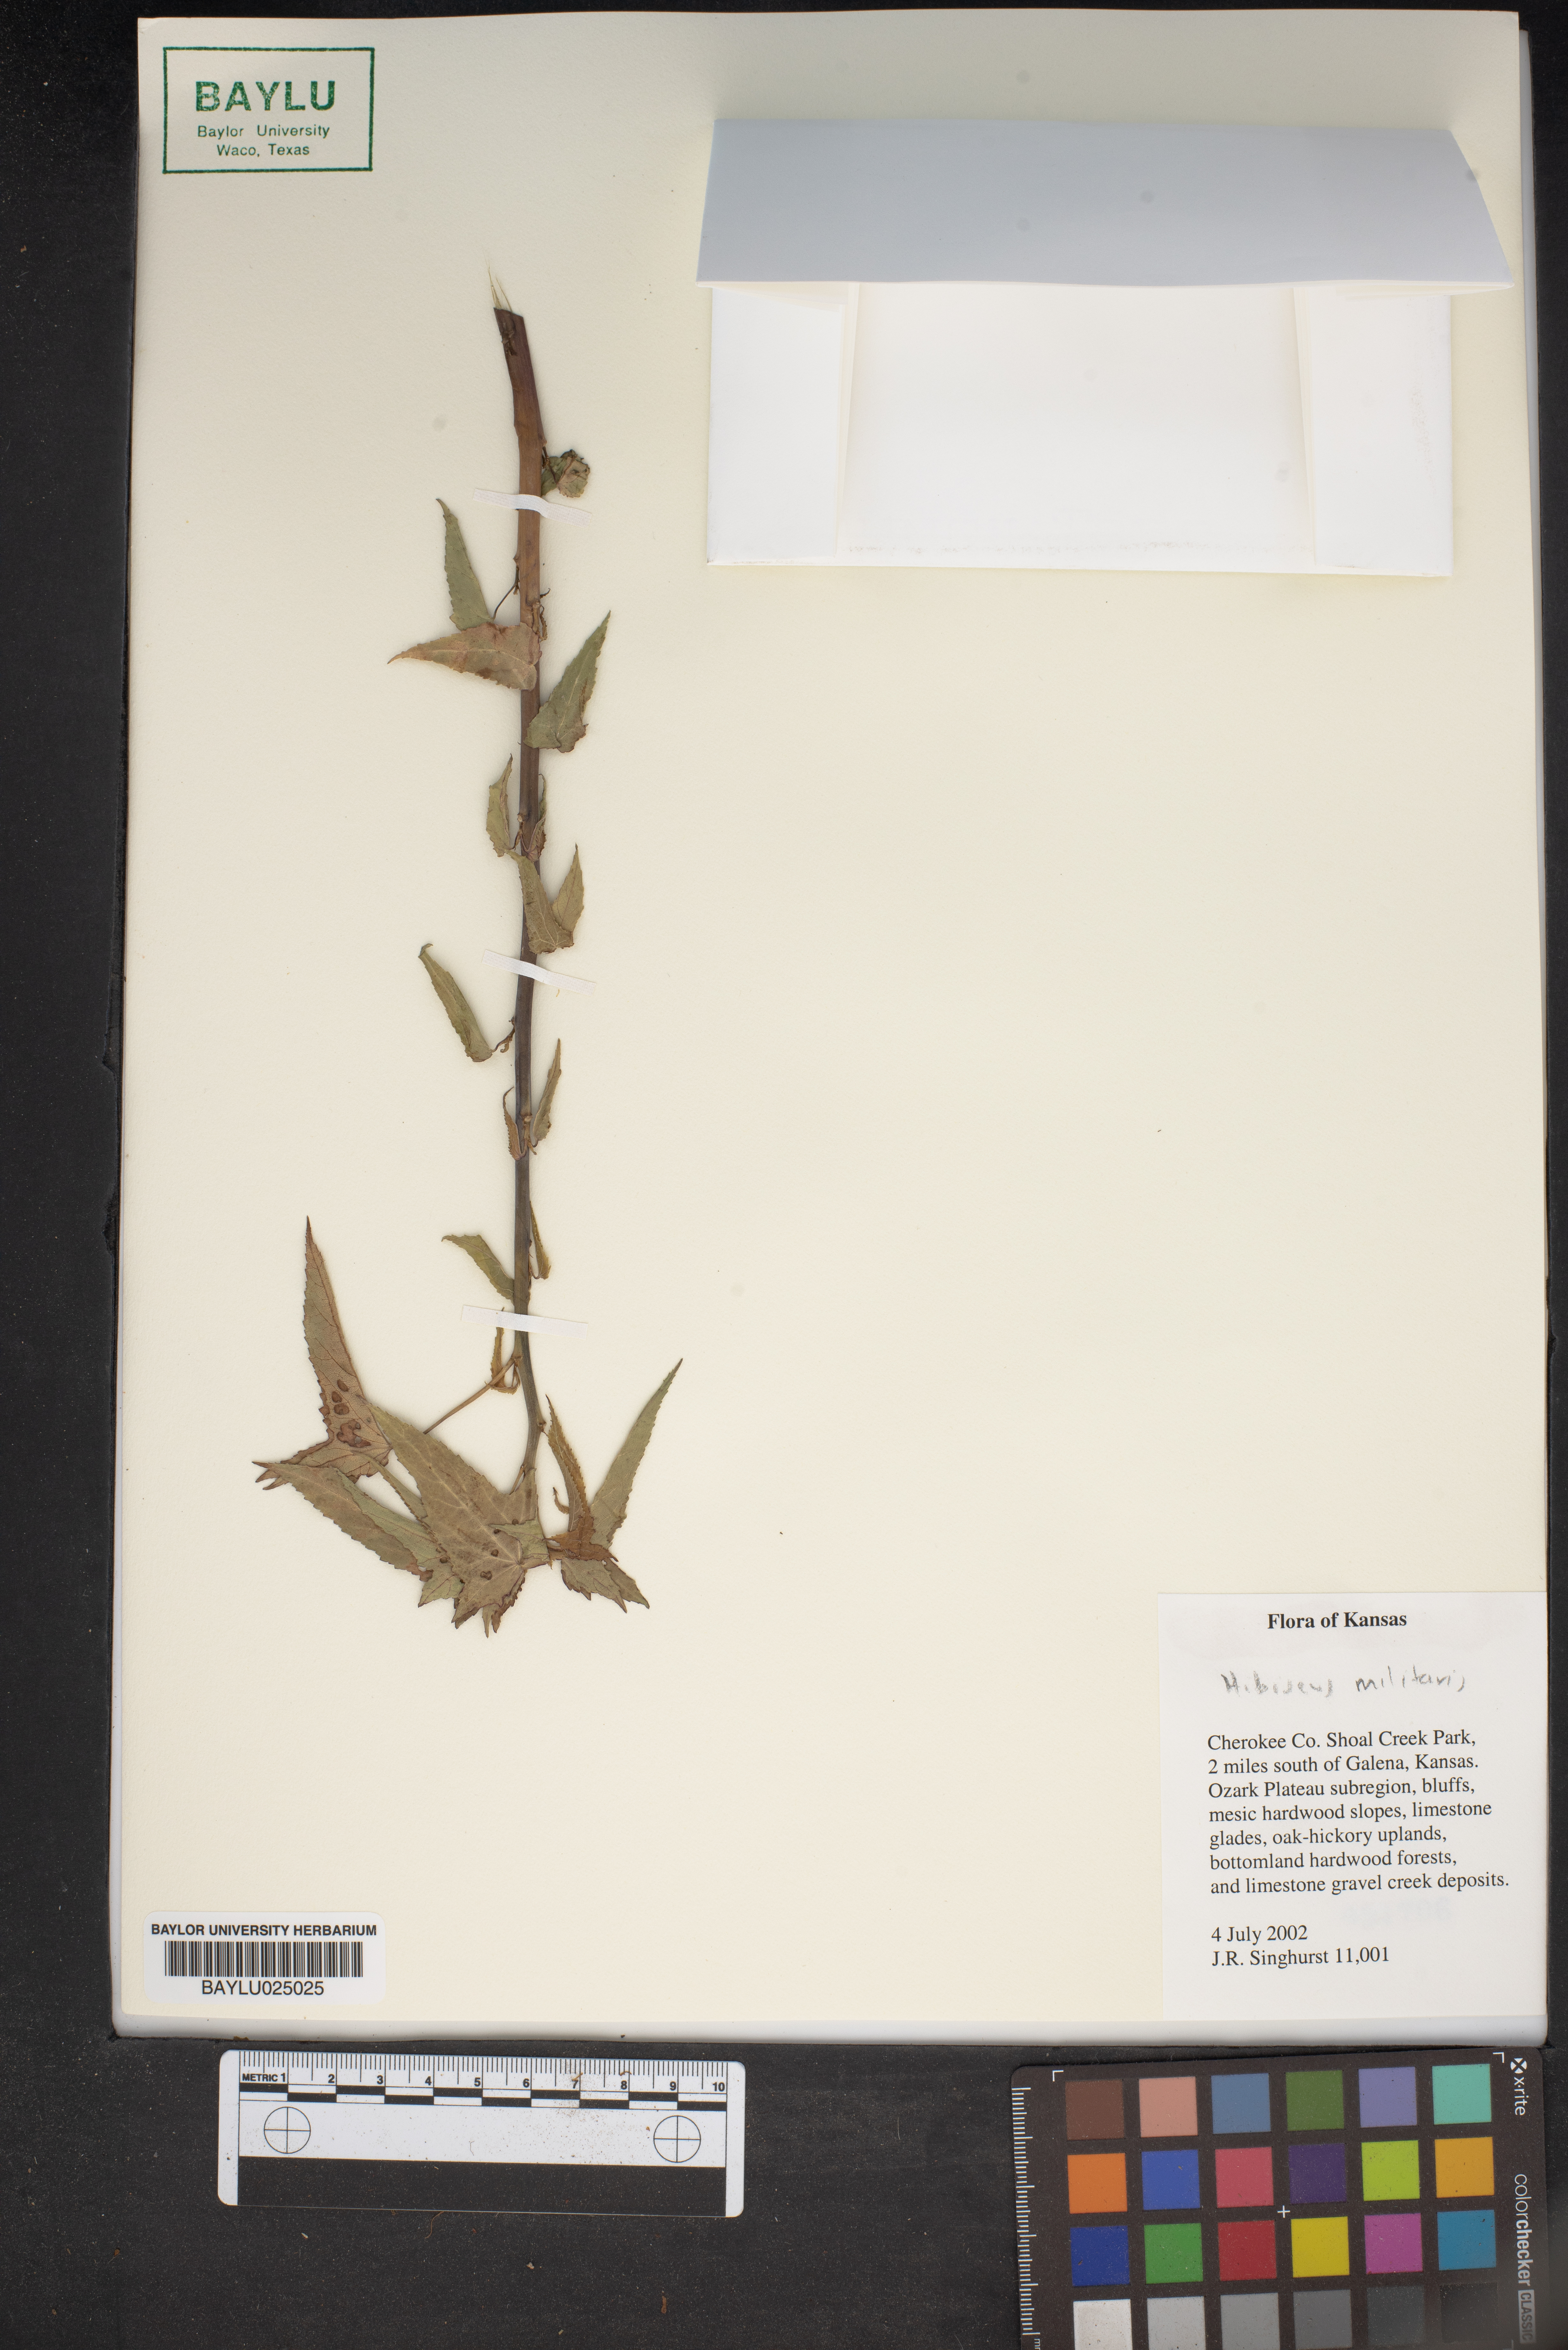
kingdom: Plantae
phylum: Tracheophyta
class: Magnoliopsida
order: Malvales
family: Malvaceae
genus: Hibiscus
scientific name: Hibiscus laevis
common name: Scarlet rose-mallow
